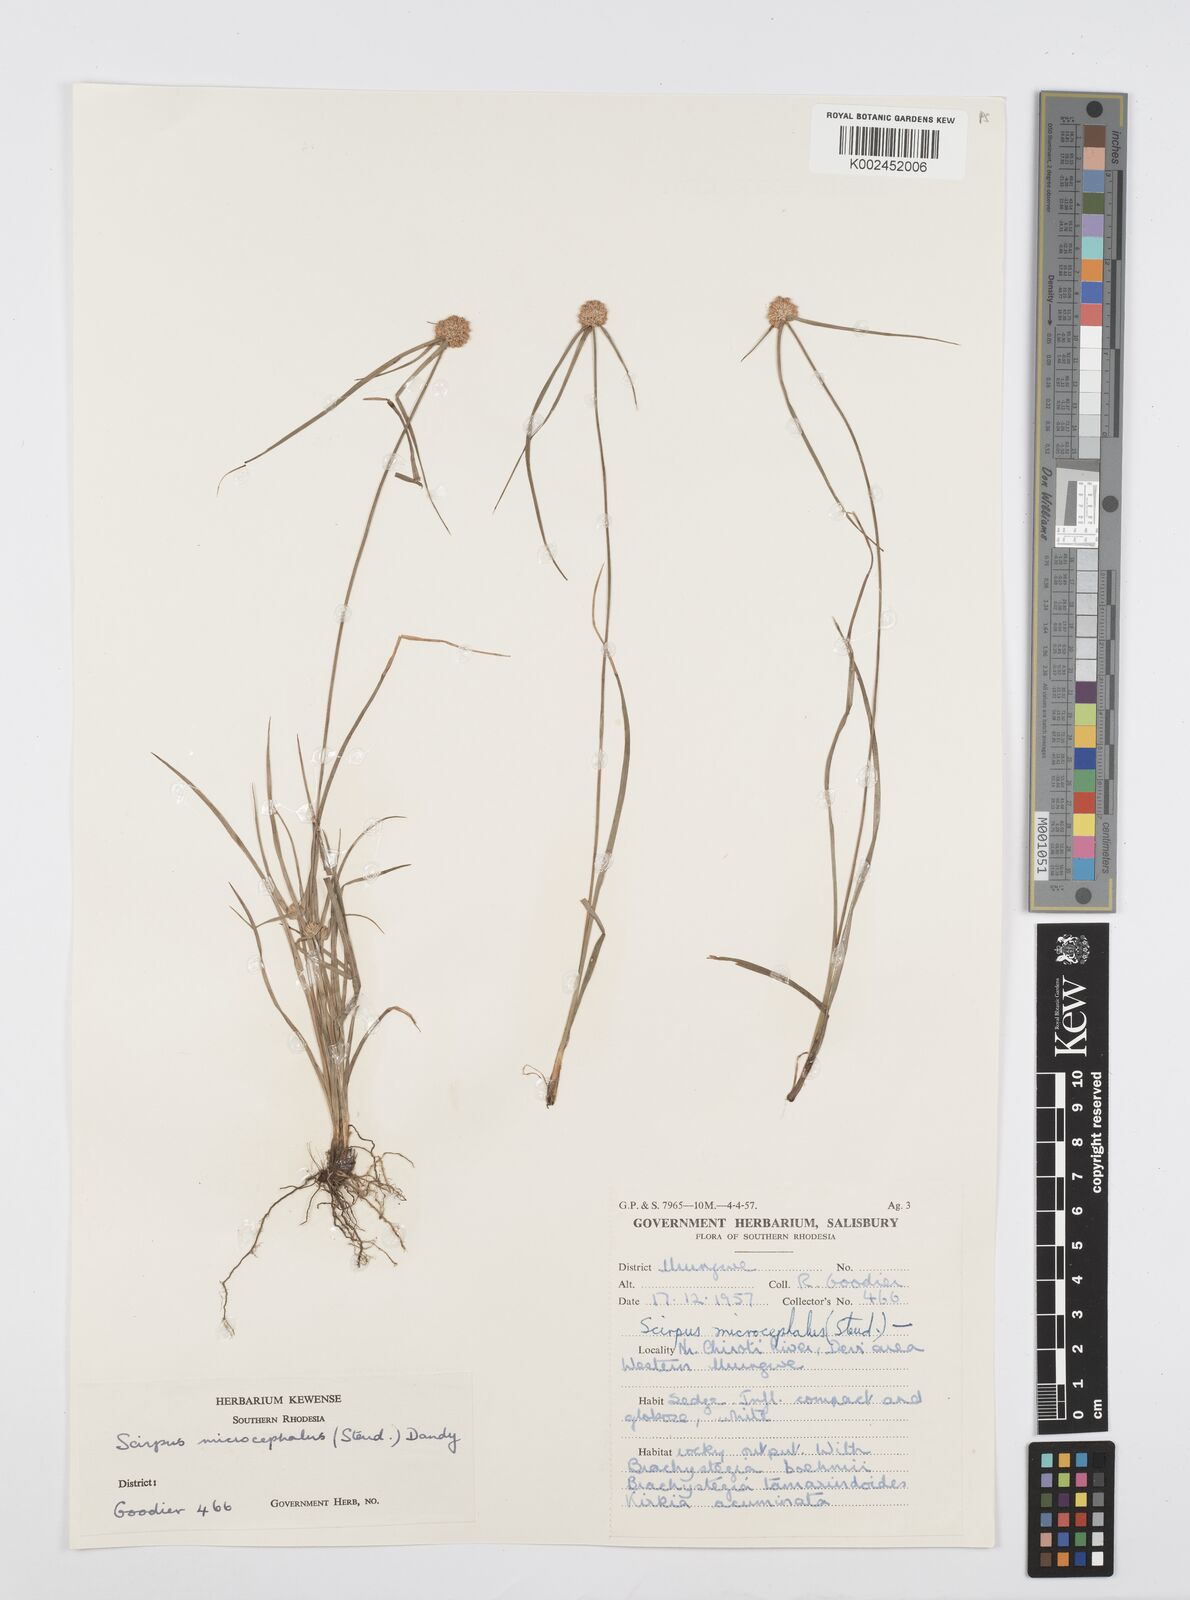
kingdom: Plantae
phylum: Tracheophyta
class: Liliopsida
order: Poales
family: Cyperaceae
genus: Cyperus
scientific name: Cyperus conglobatus
